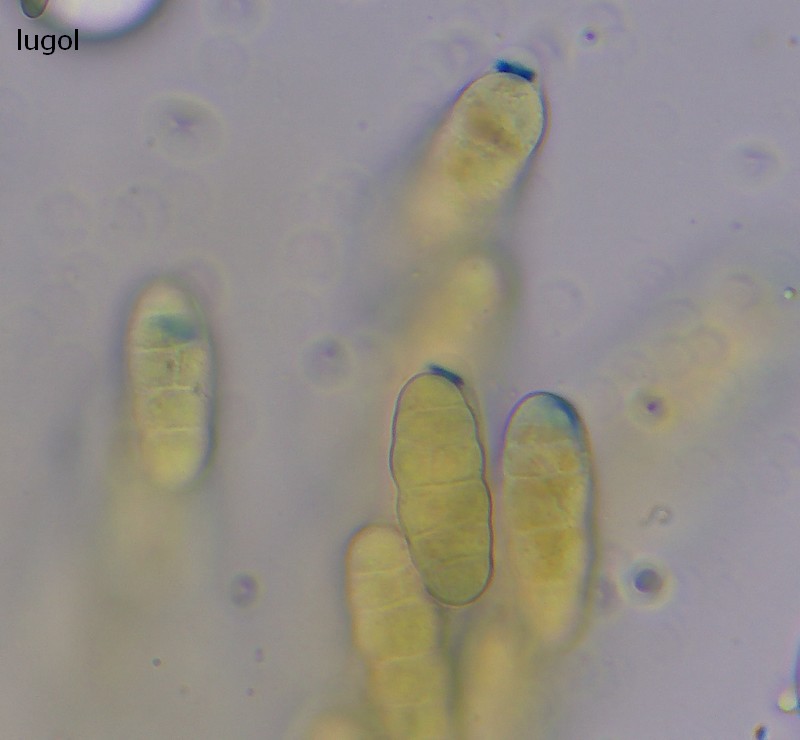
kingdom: Fungi
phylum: Ascomycota
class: Sordariomycetes
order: Amphisphaeriales
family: Sporocadaceae
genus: Seimatosporium
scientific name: Seimatosporium massarina
